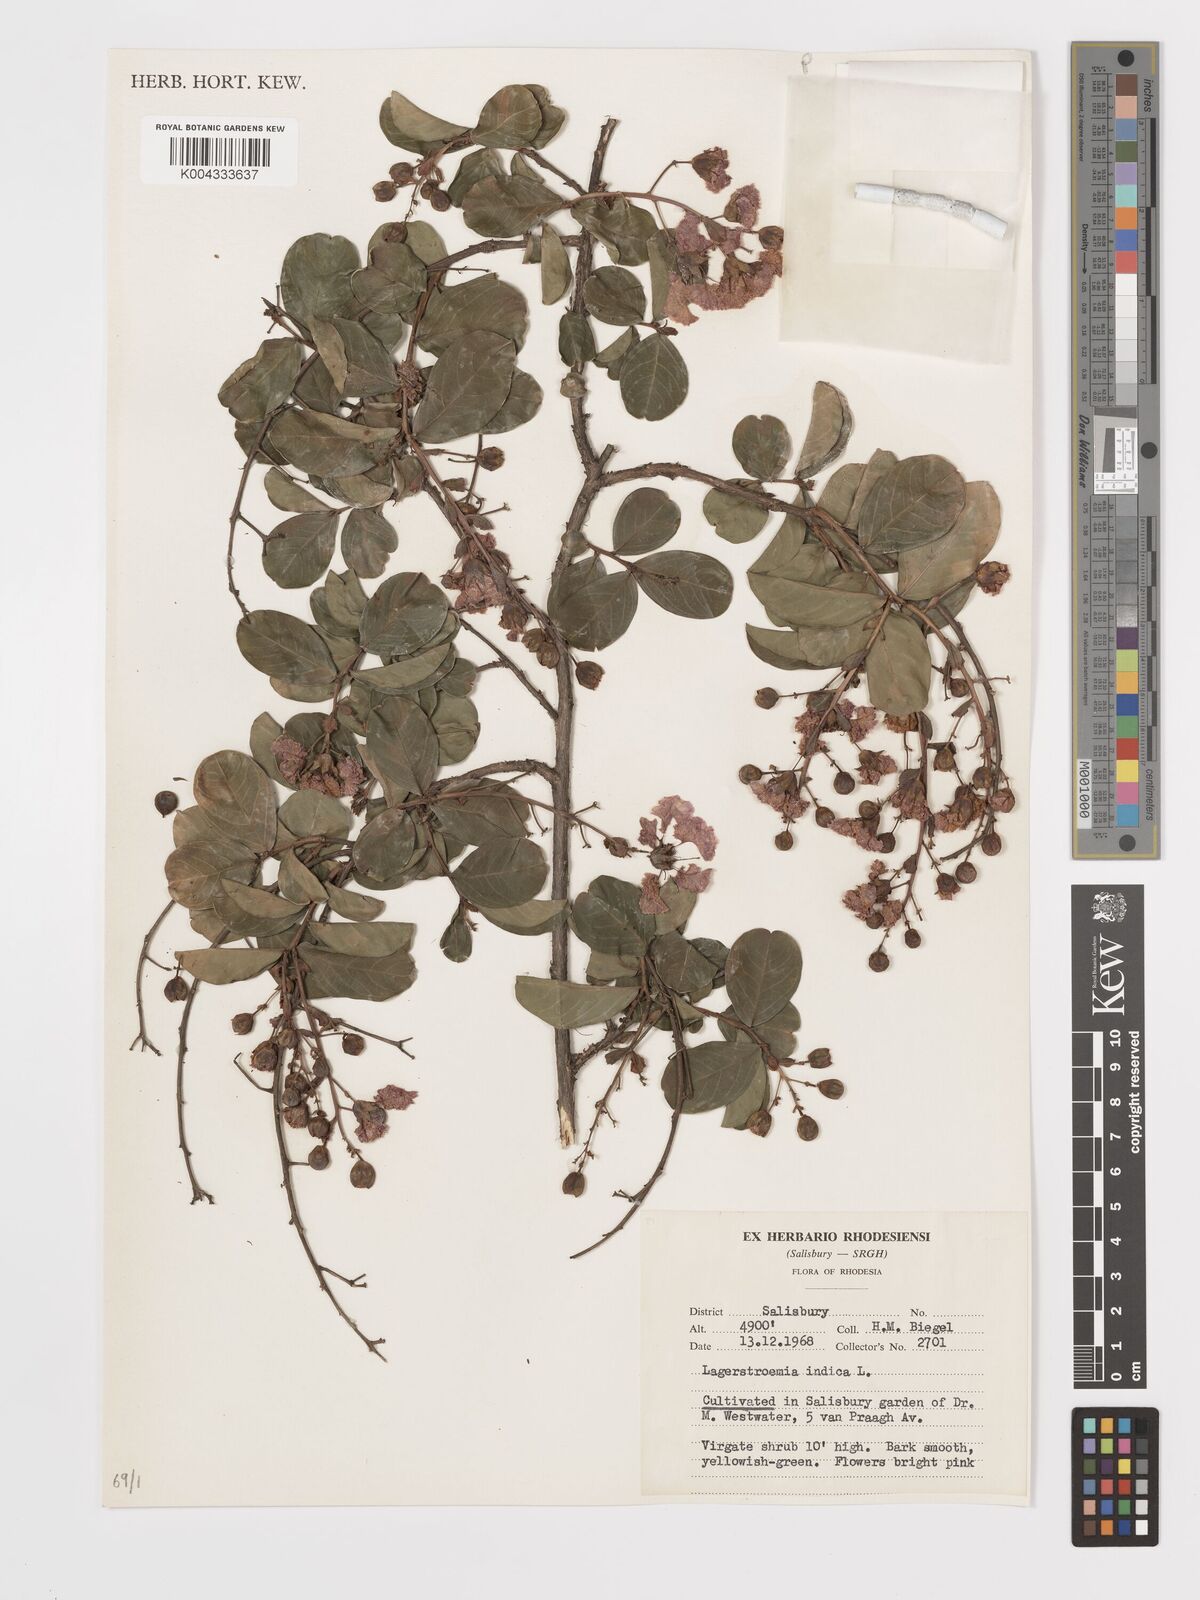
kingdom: Plantae
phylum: Tracheophyta
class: Magnoliopsida
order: Myrtales
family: Lythraceae
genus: Lagerstroemia
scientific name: Lagerstroemia indica
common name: Crape-myrtle
